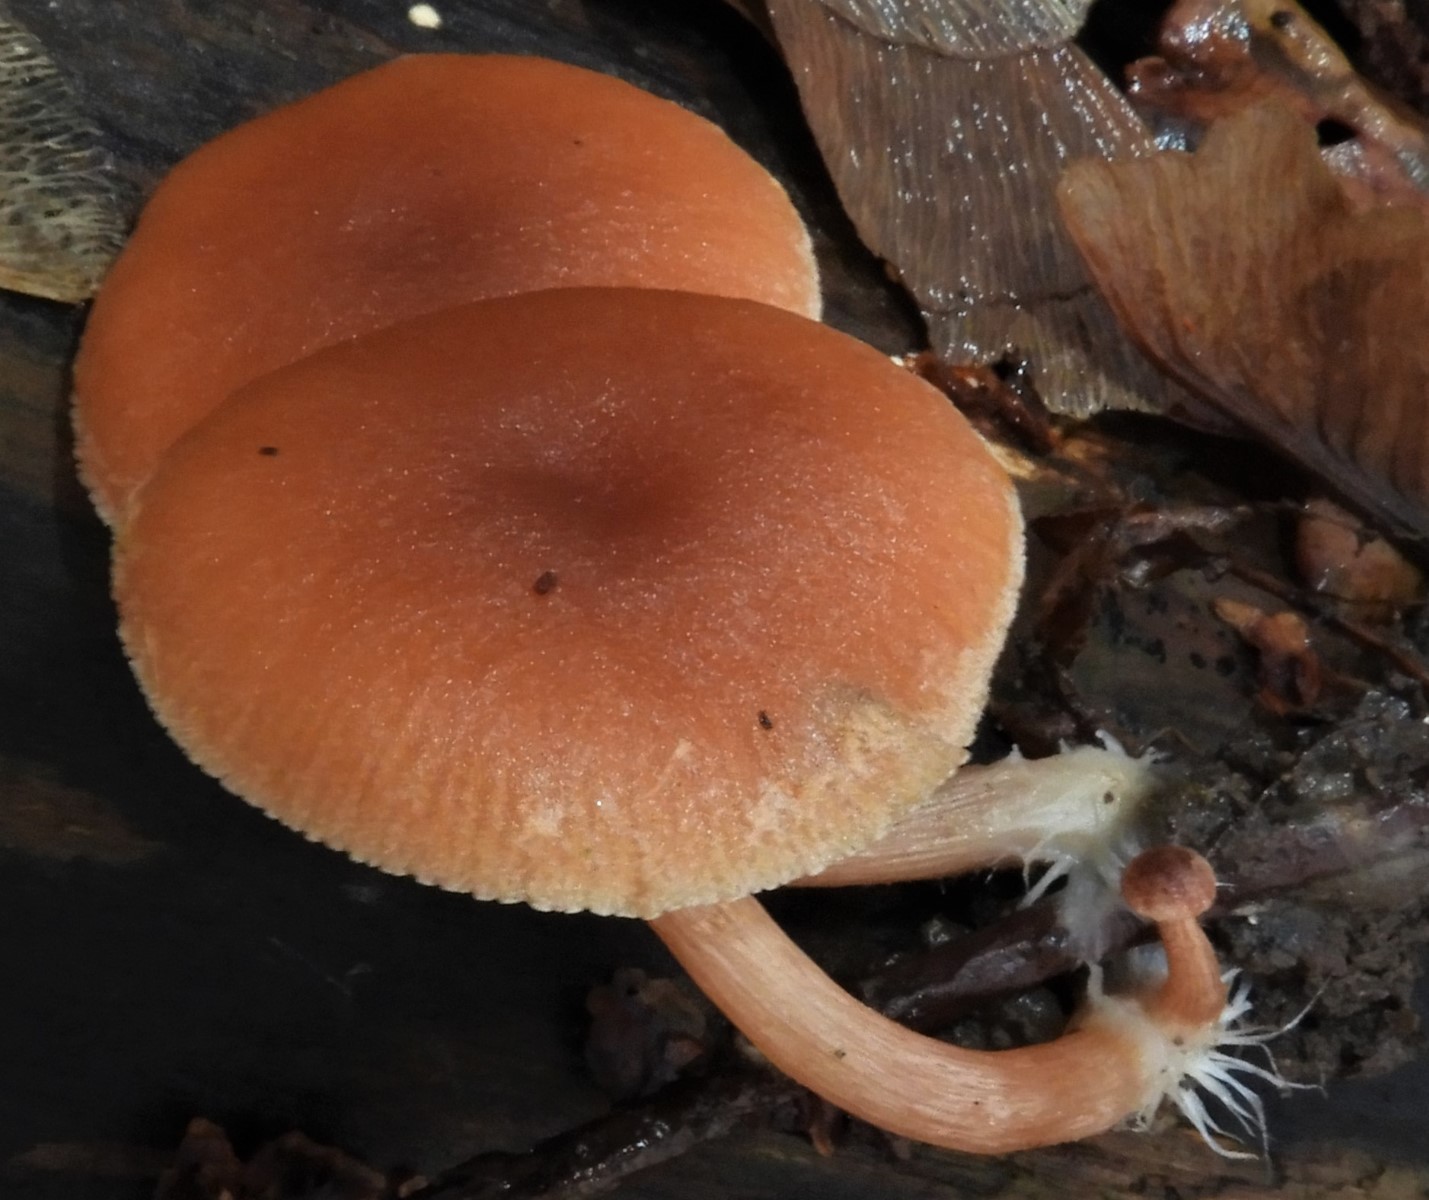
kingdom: Fungi
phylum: Basidiomycota
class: Agaricomycetes
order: Agaricales
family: Tubariaceae
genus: Tubaria
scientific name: Tubaria furfuracea
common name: kliddet fnughat
